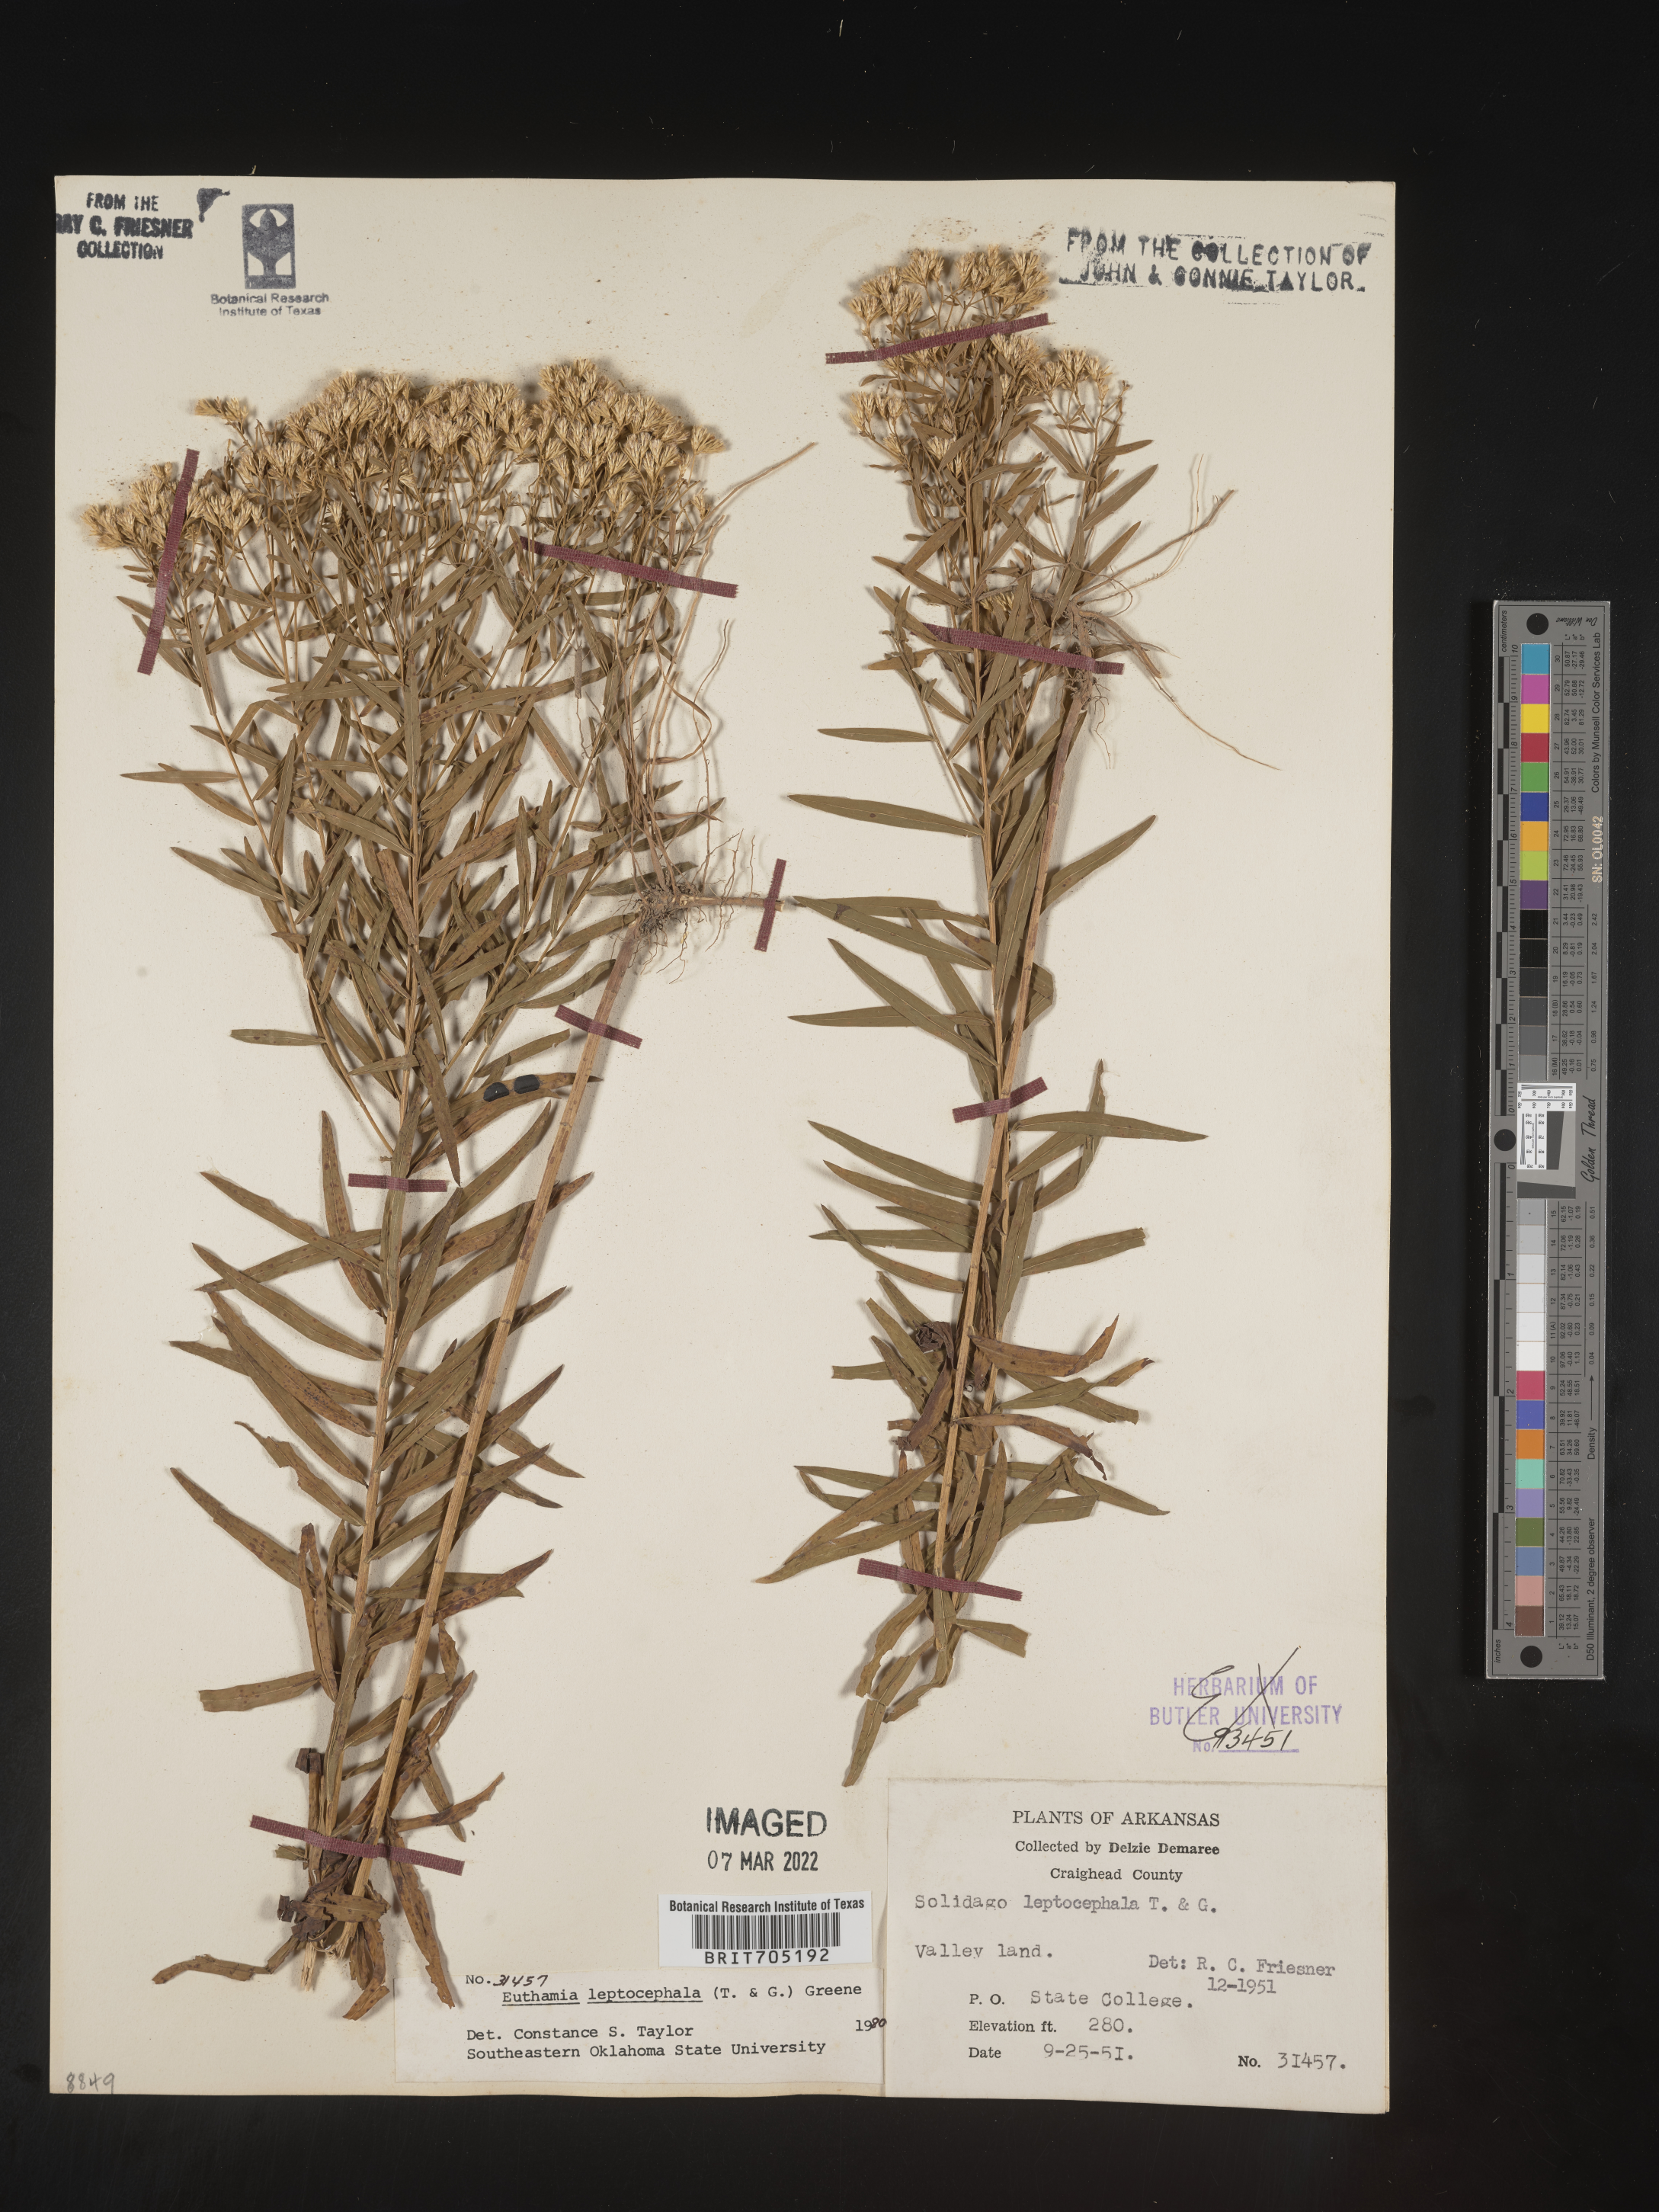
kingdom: Plantae
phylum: Tracheophyta
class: Magnoliopsida
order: Asterales
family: Asteraceae
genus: Euthamia
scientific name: Euthamia leptocephala
